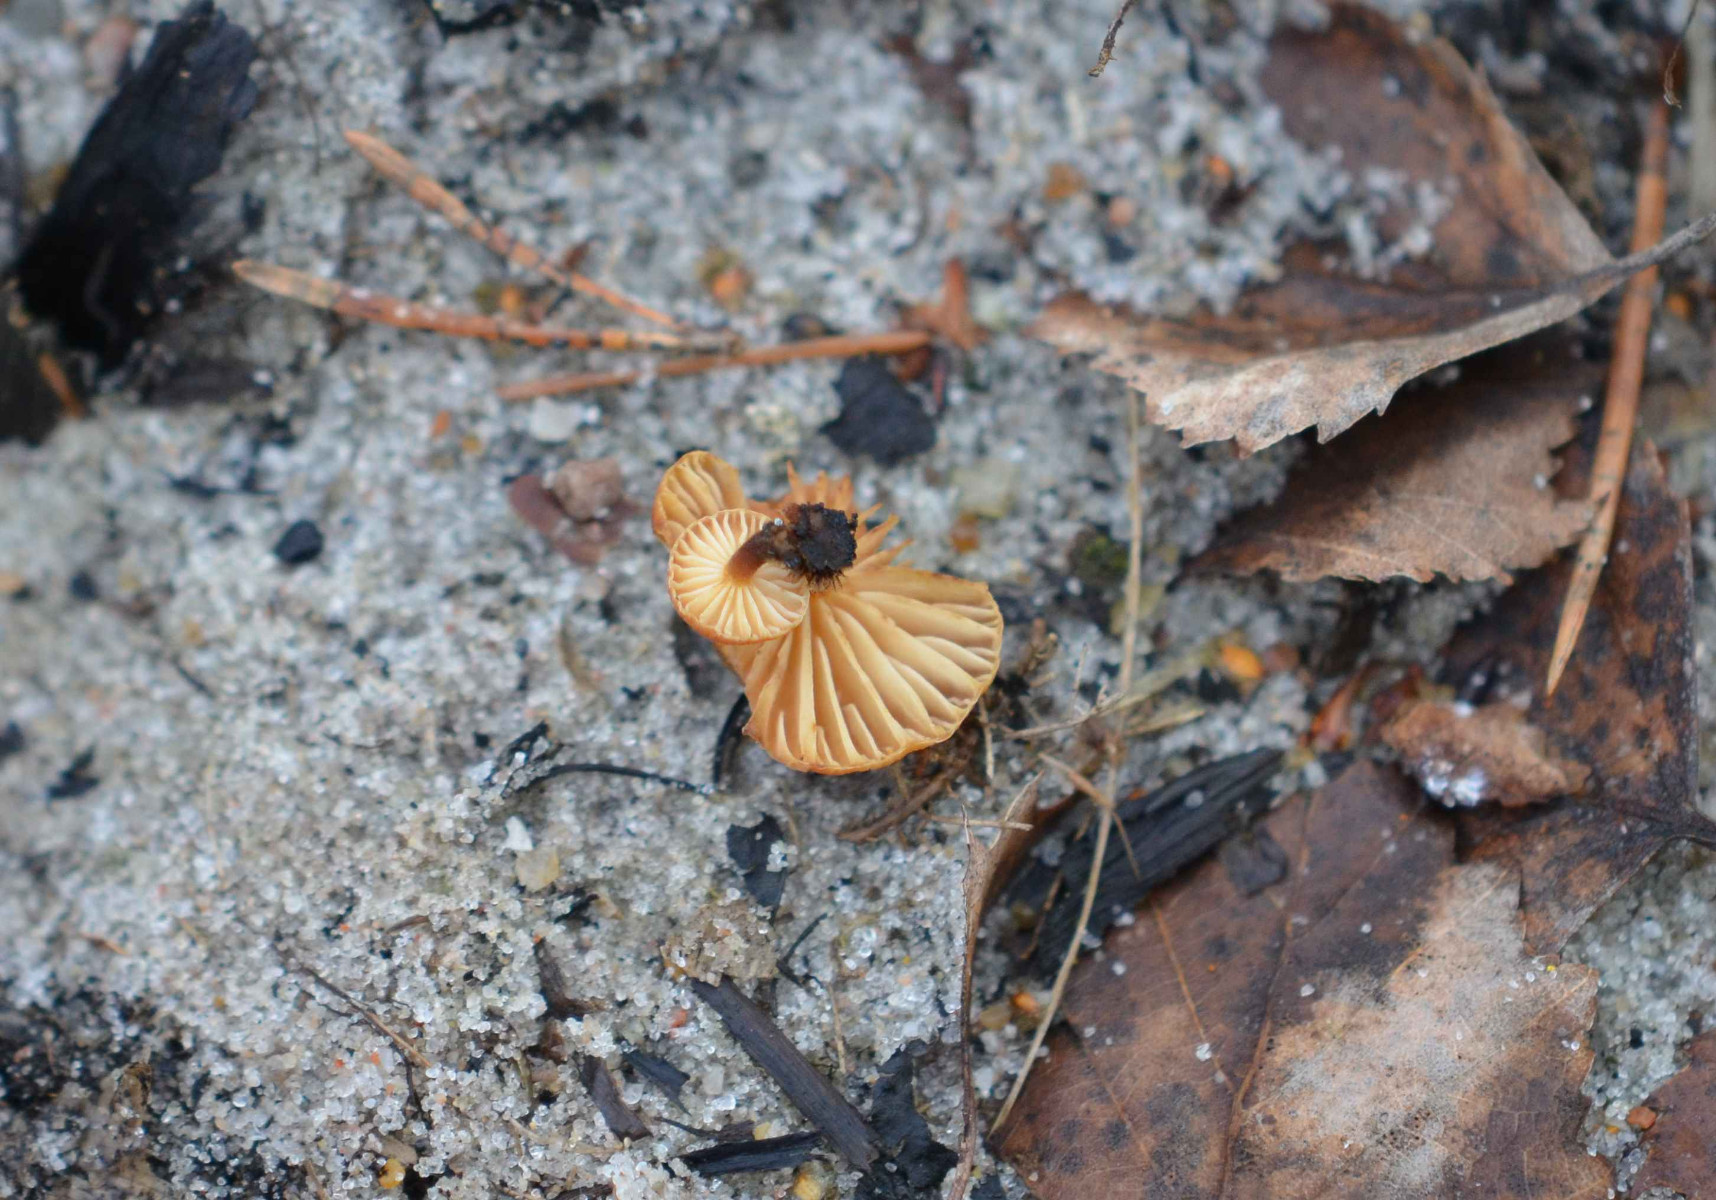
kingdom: Fungi
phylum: Basidiomycota
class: Agaricomycetes
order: Agaricales
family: Physalacriaceae
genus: Flammulina
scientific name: Flammulina
